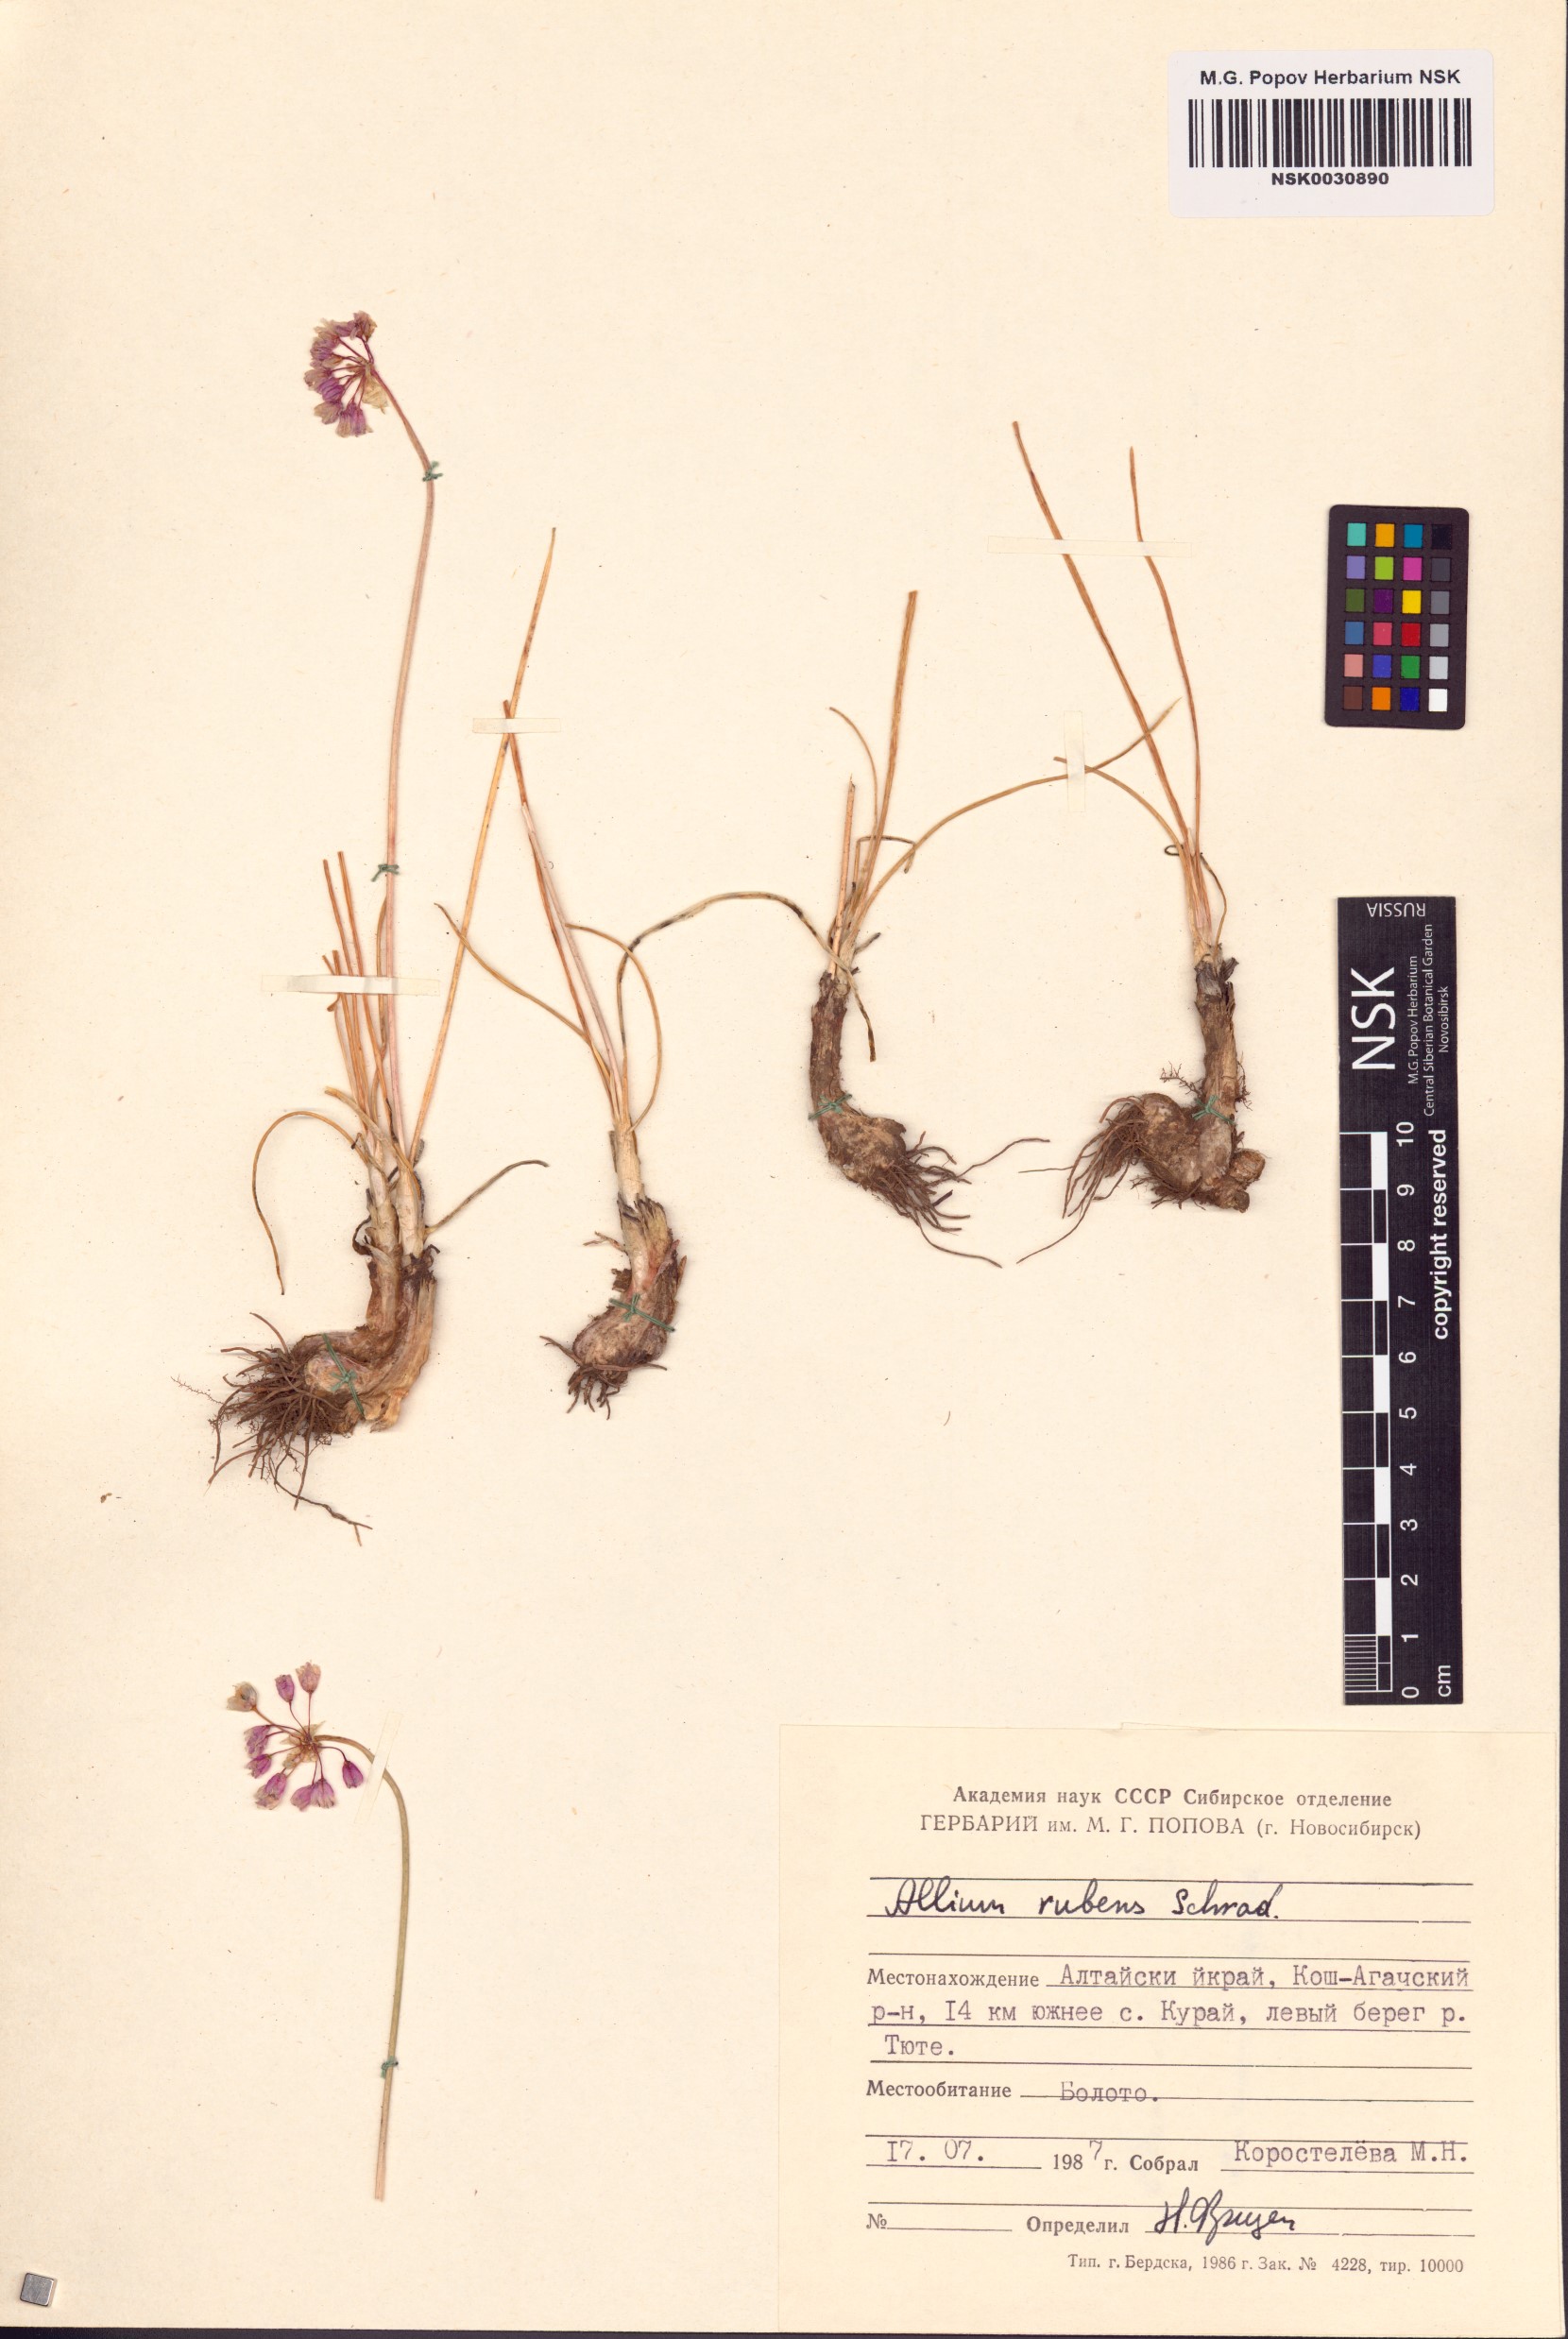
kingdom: Plantae
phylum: Tracheophyta
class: Liliopsida
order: Asparagales
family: Amaryllidaceae
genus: Allium
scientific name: Allium rubens
